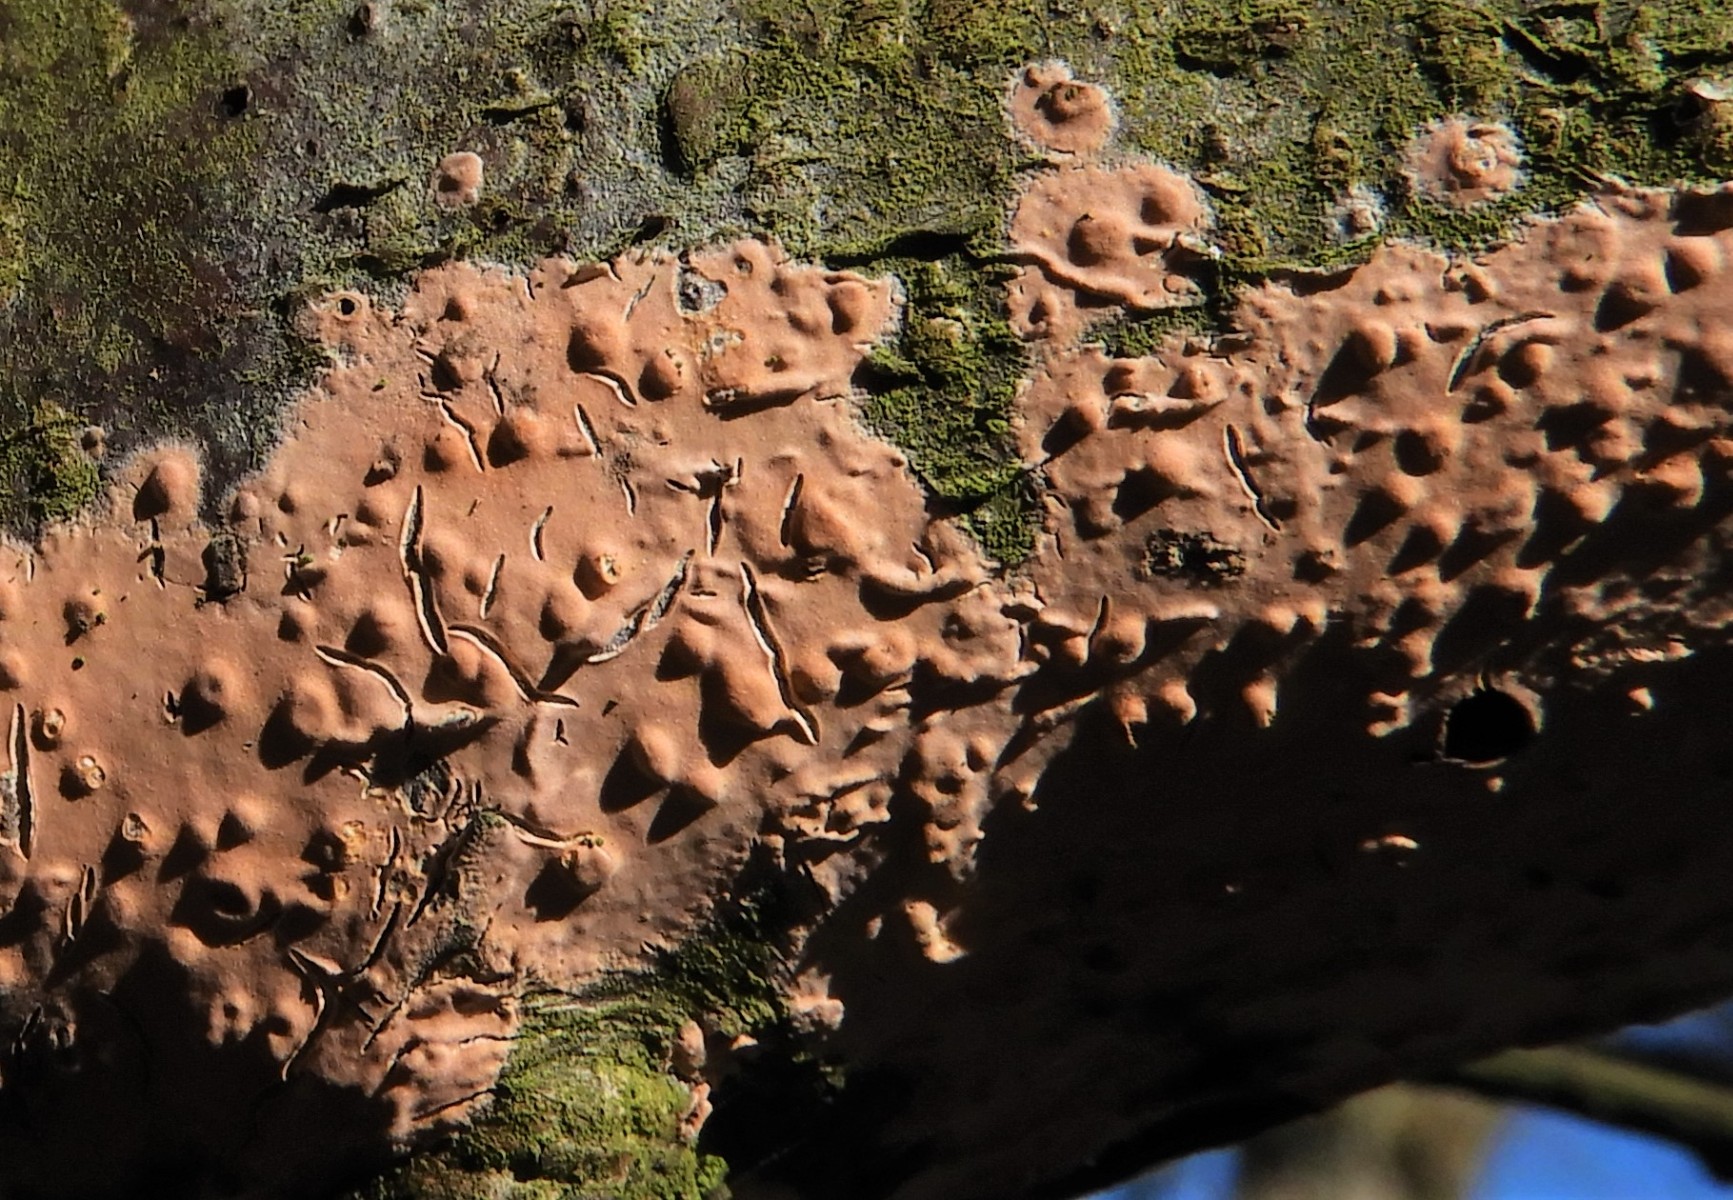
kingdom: Fungi
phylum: Basidiomycota
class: Agaricomycetes
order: Russulales
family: Peniophoraceae
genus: Peniophora
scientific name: Peniophora incarnata
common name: laksefarvet voksskind
